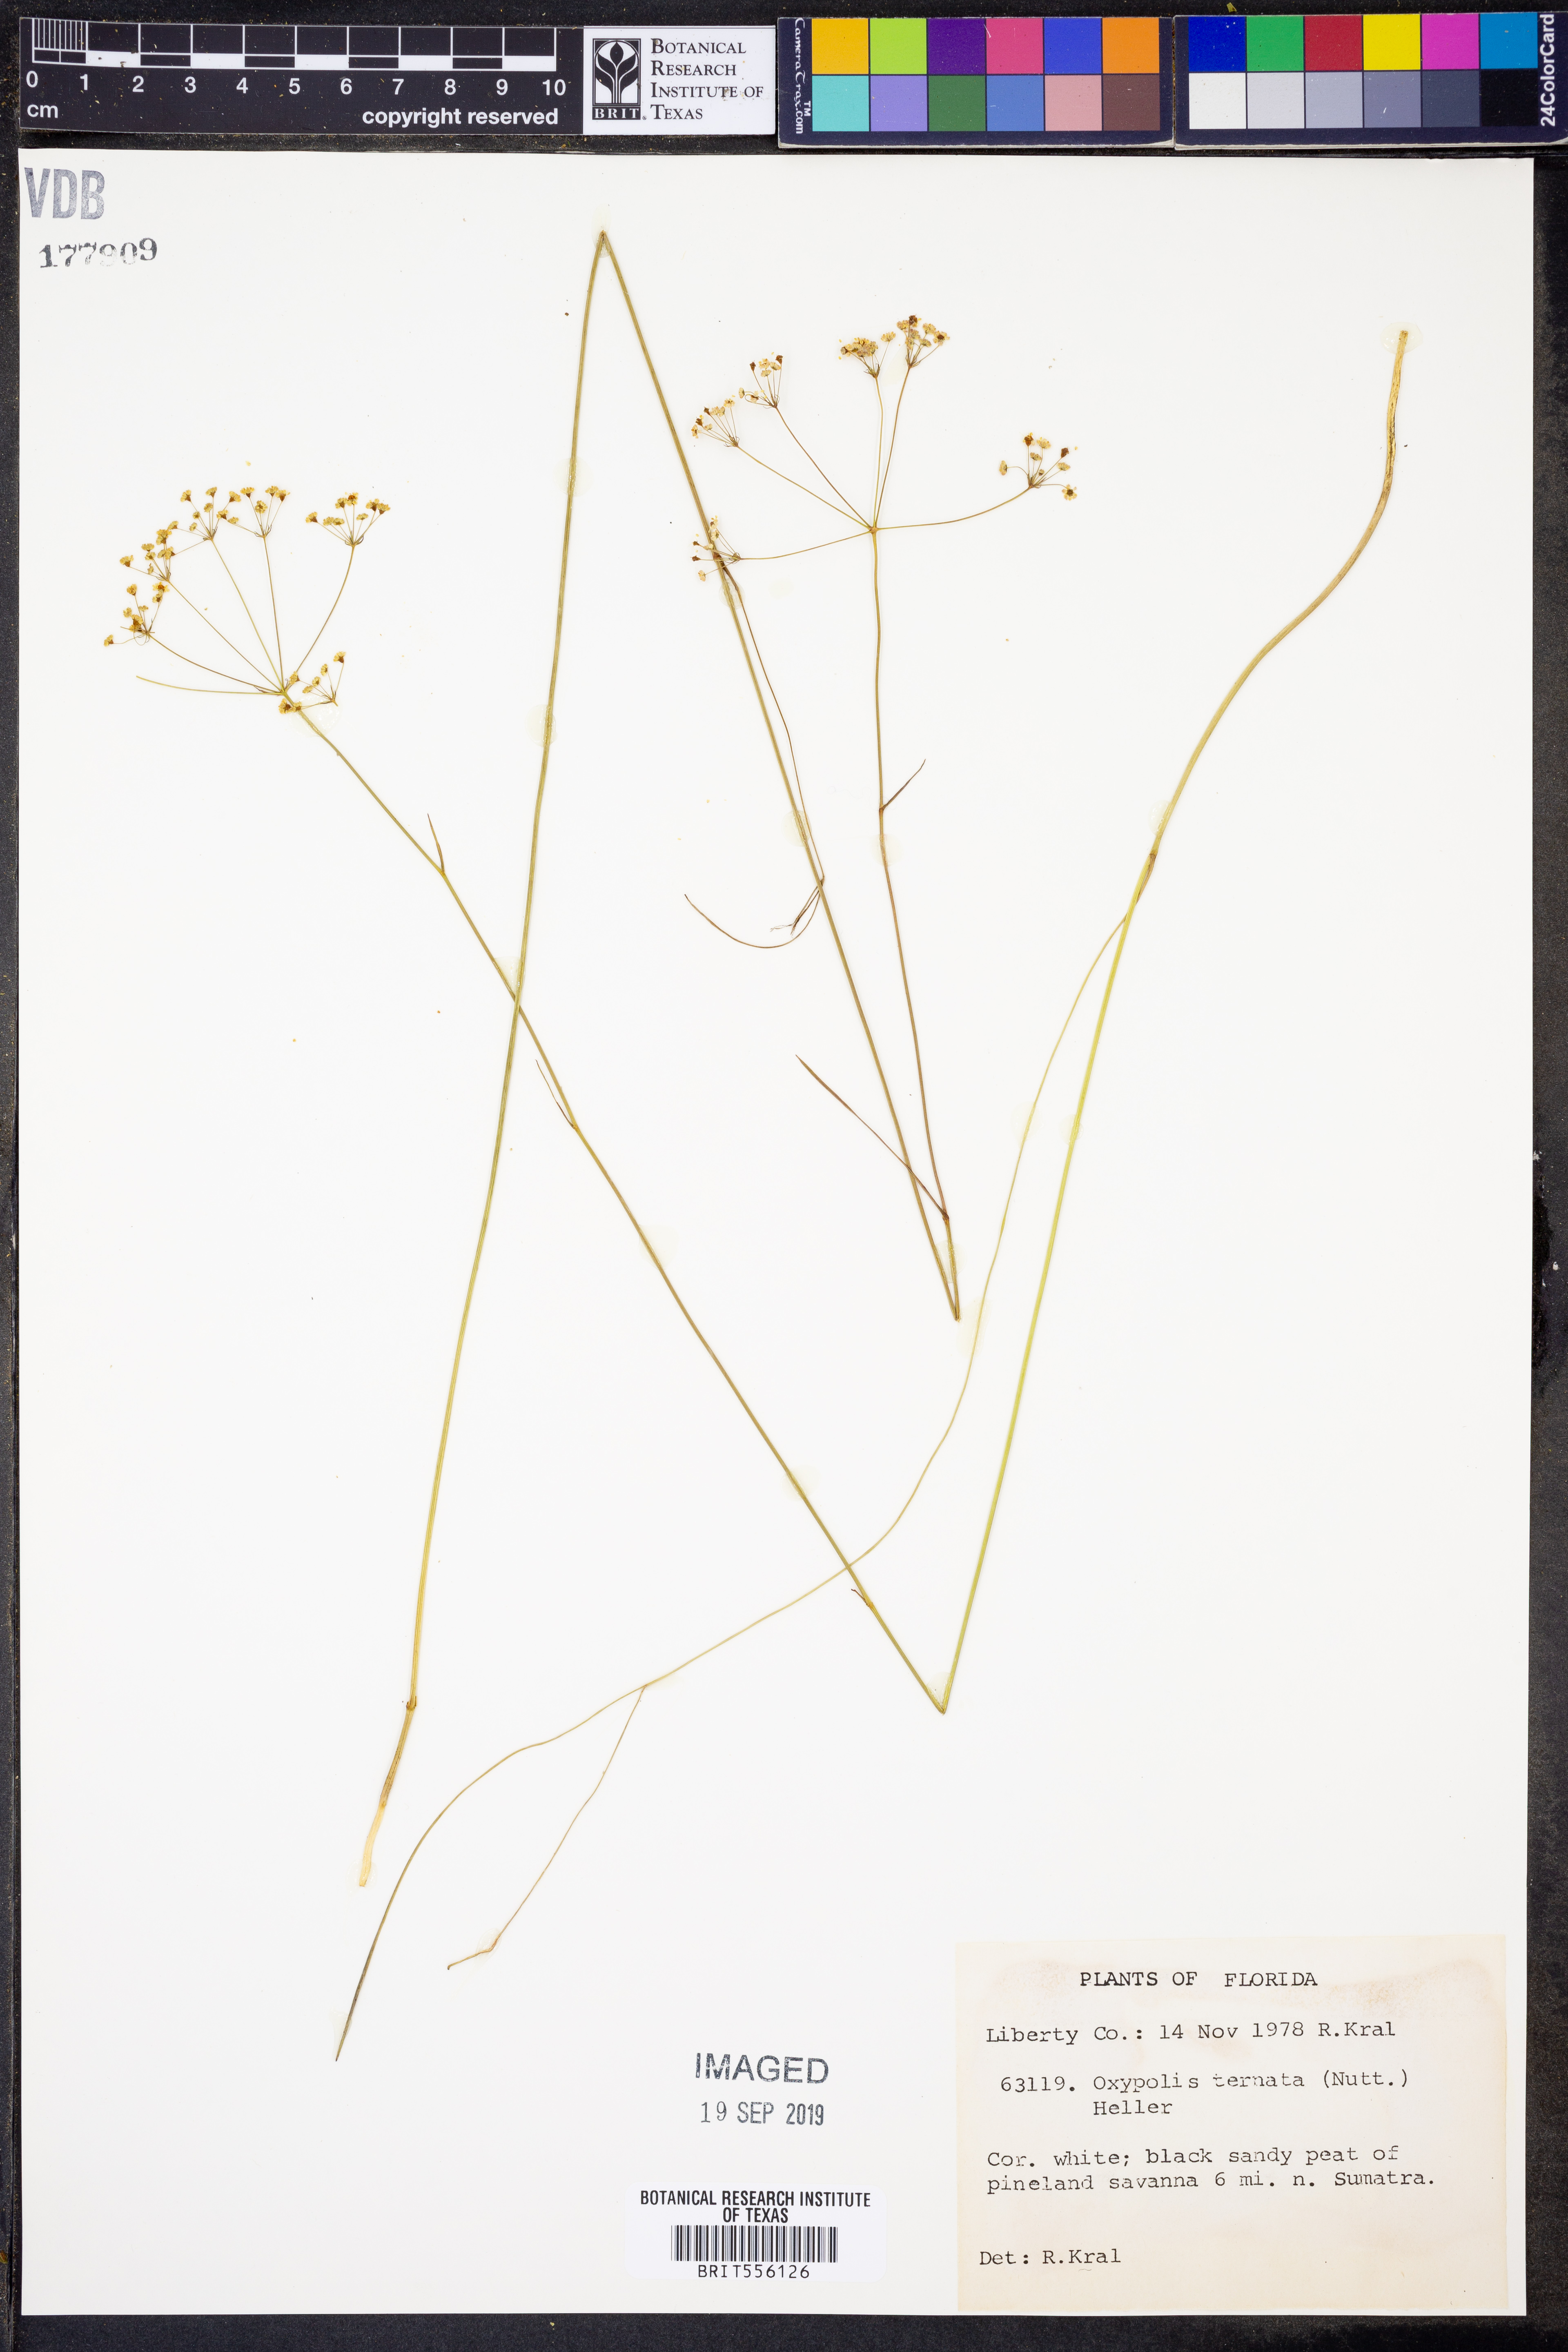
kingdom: Plantae
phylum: Tracheophyta
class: Magnoliopsida
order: Apiales
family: Apiaceae
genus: Oxypolis
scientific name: Oxypolis ternata
